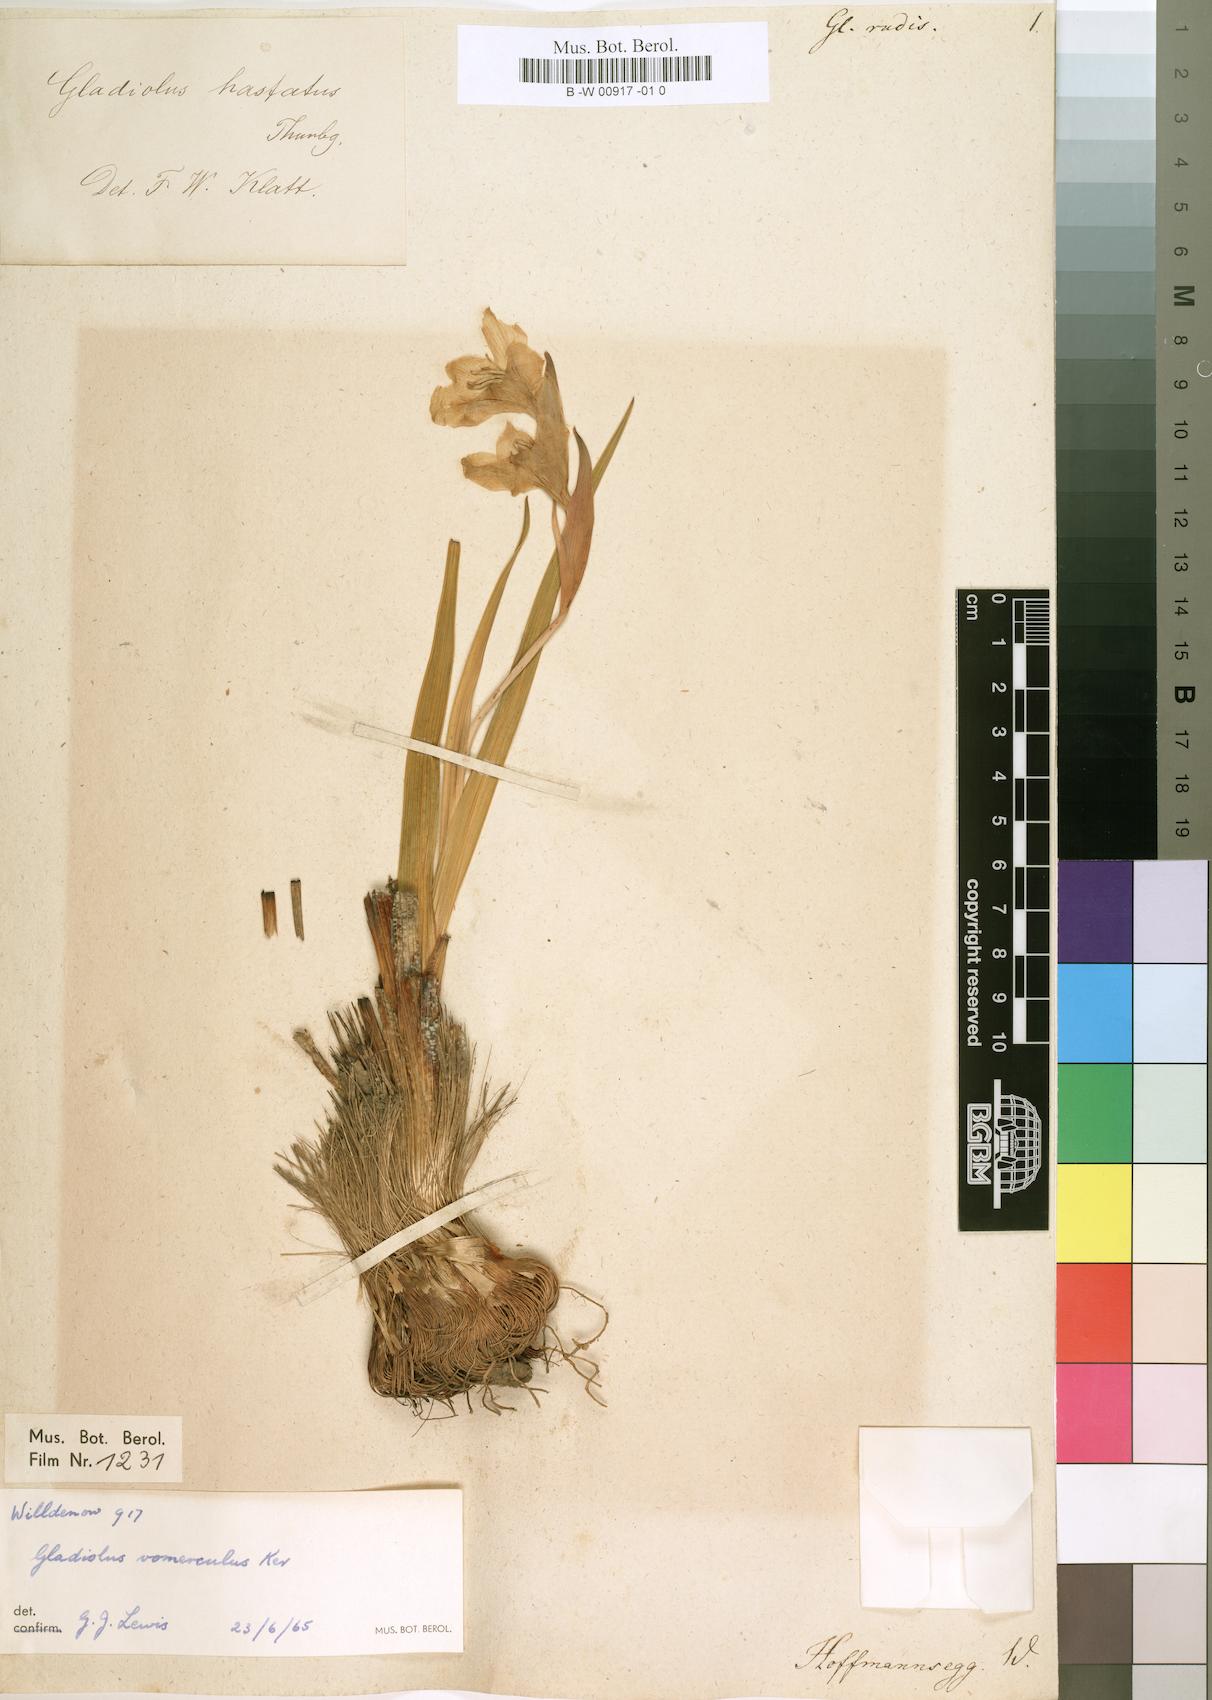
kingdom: Plantae
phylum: Tracheophyta
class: Liliopsida
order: Asparagales
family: Iridaceae
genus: Gladiolus
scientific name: Gladiolus rudis
